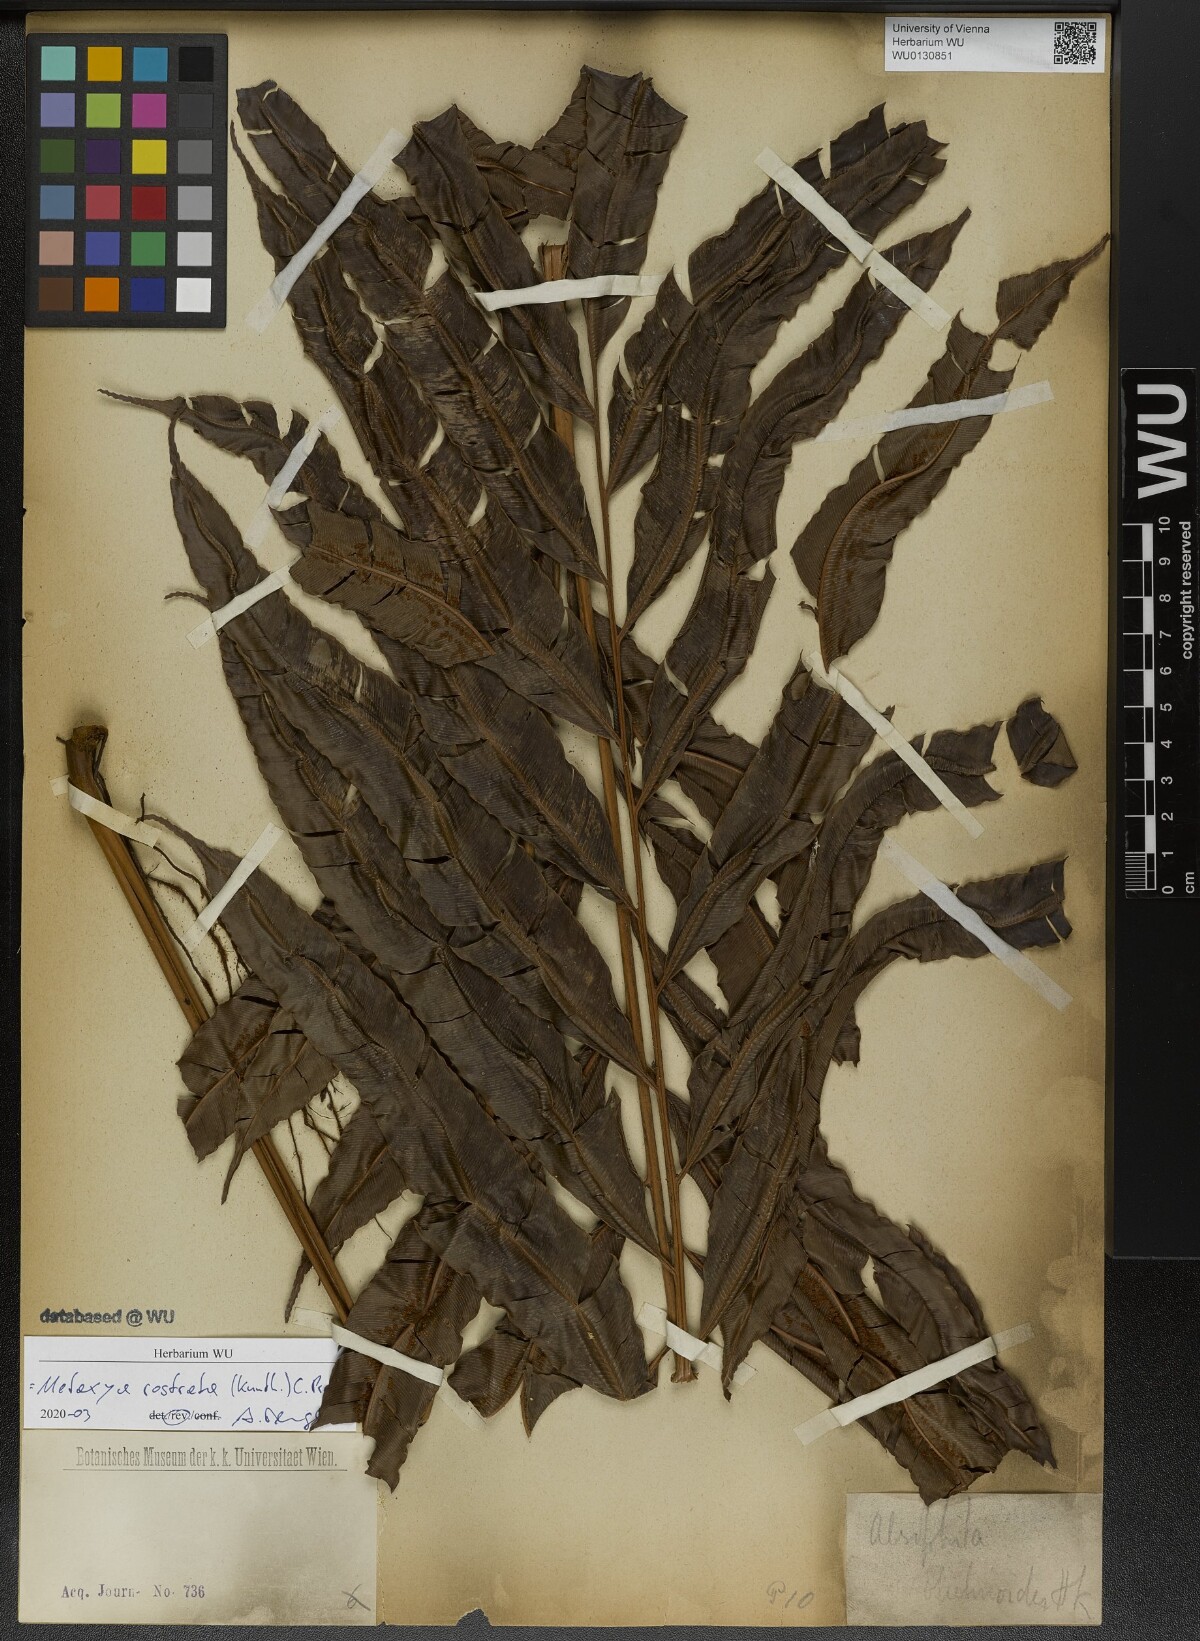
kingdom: Plantae
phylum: Tracheophyta
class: Polypodiopsida
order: Cyatheales
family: Metaxyaceae
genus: Metaxya
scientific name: Metaxya rostrata
